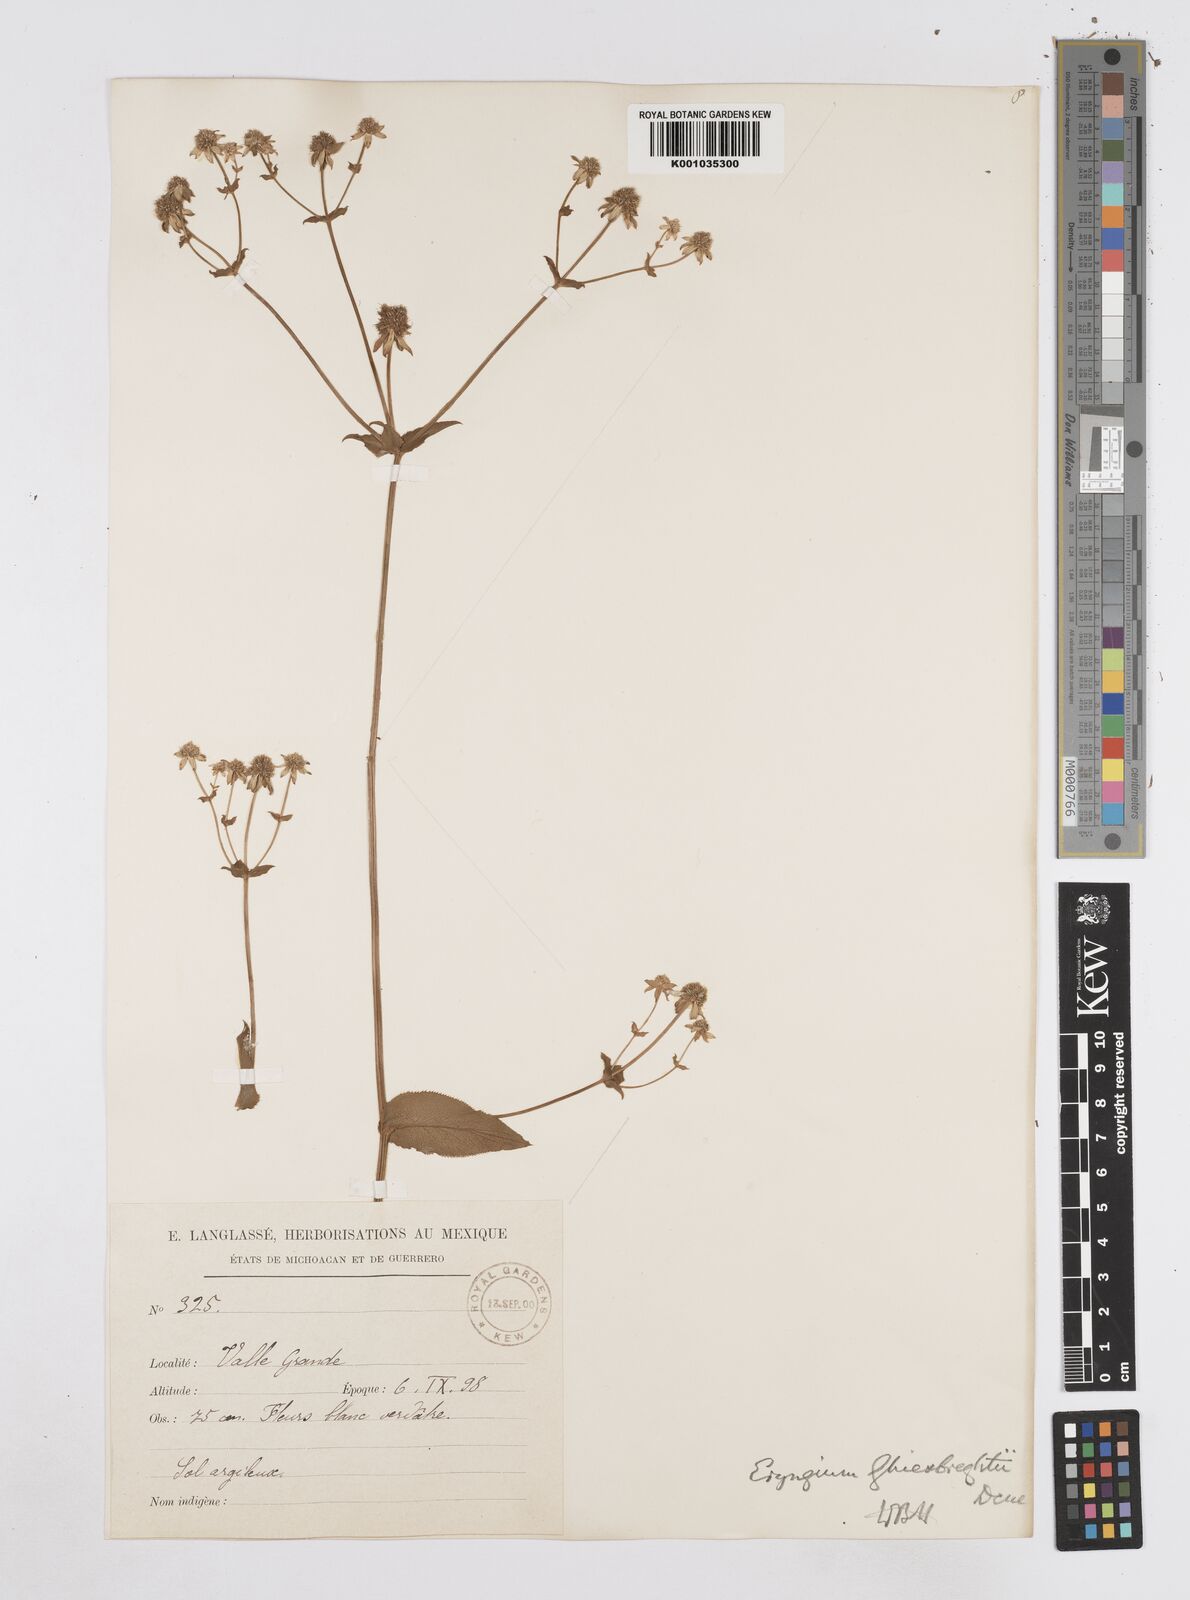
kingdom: Plantae
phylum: Tracheophyta
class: Magnoliopsida
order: Apiales
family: Apiaceae
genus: Eryngium
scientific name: Eryngium ghiesbreghtii
